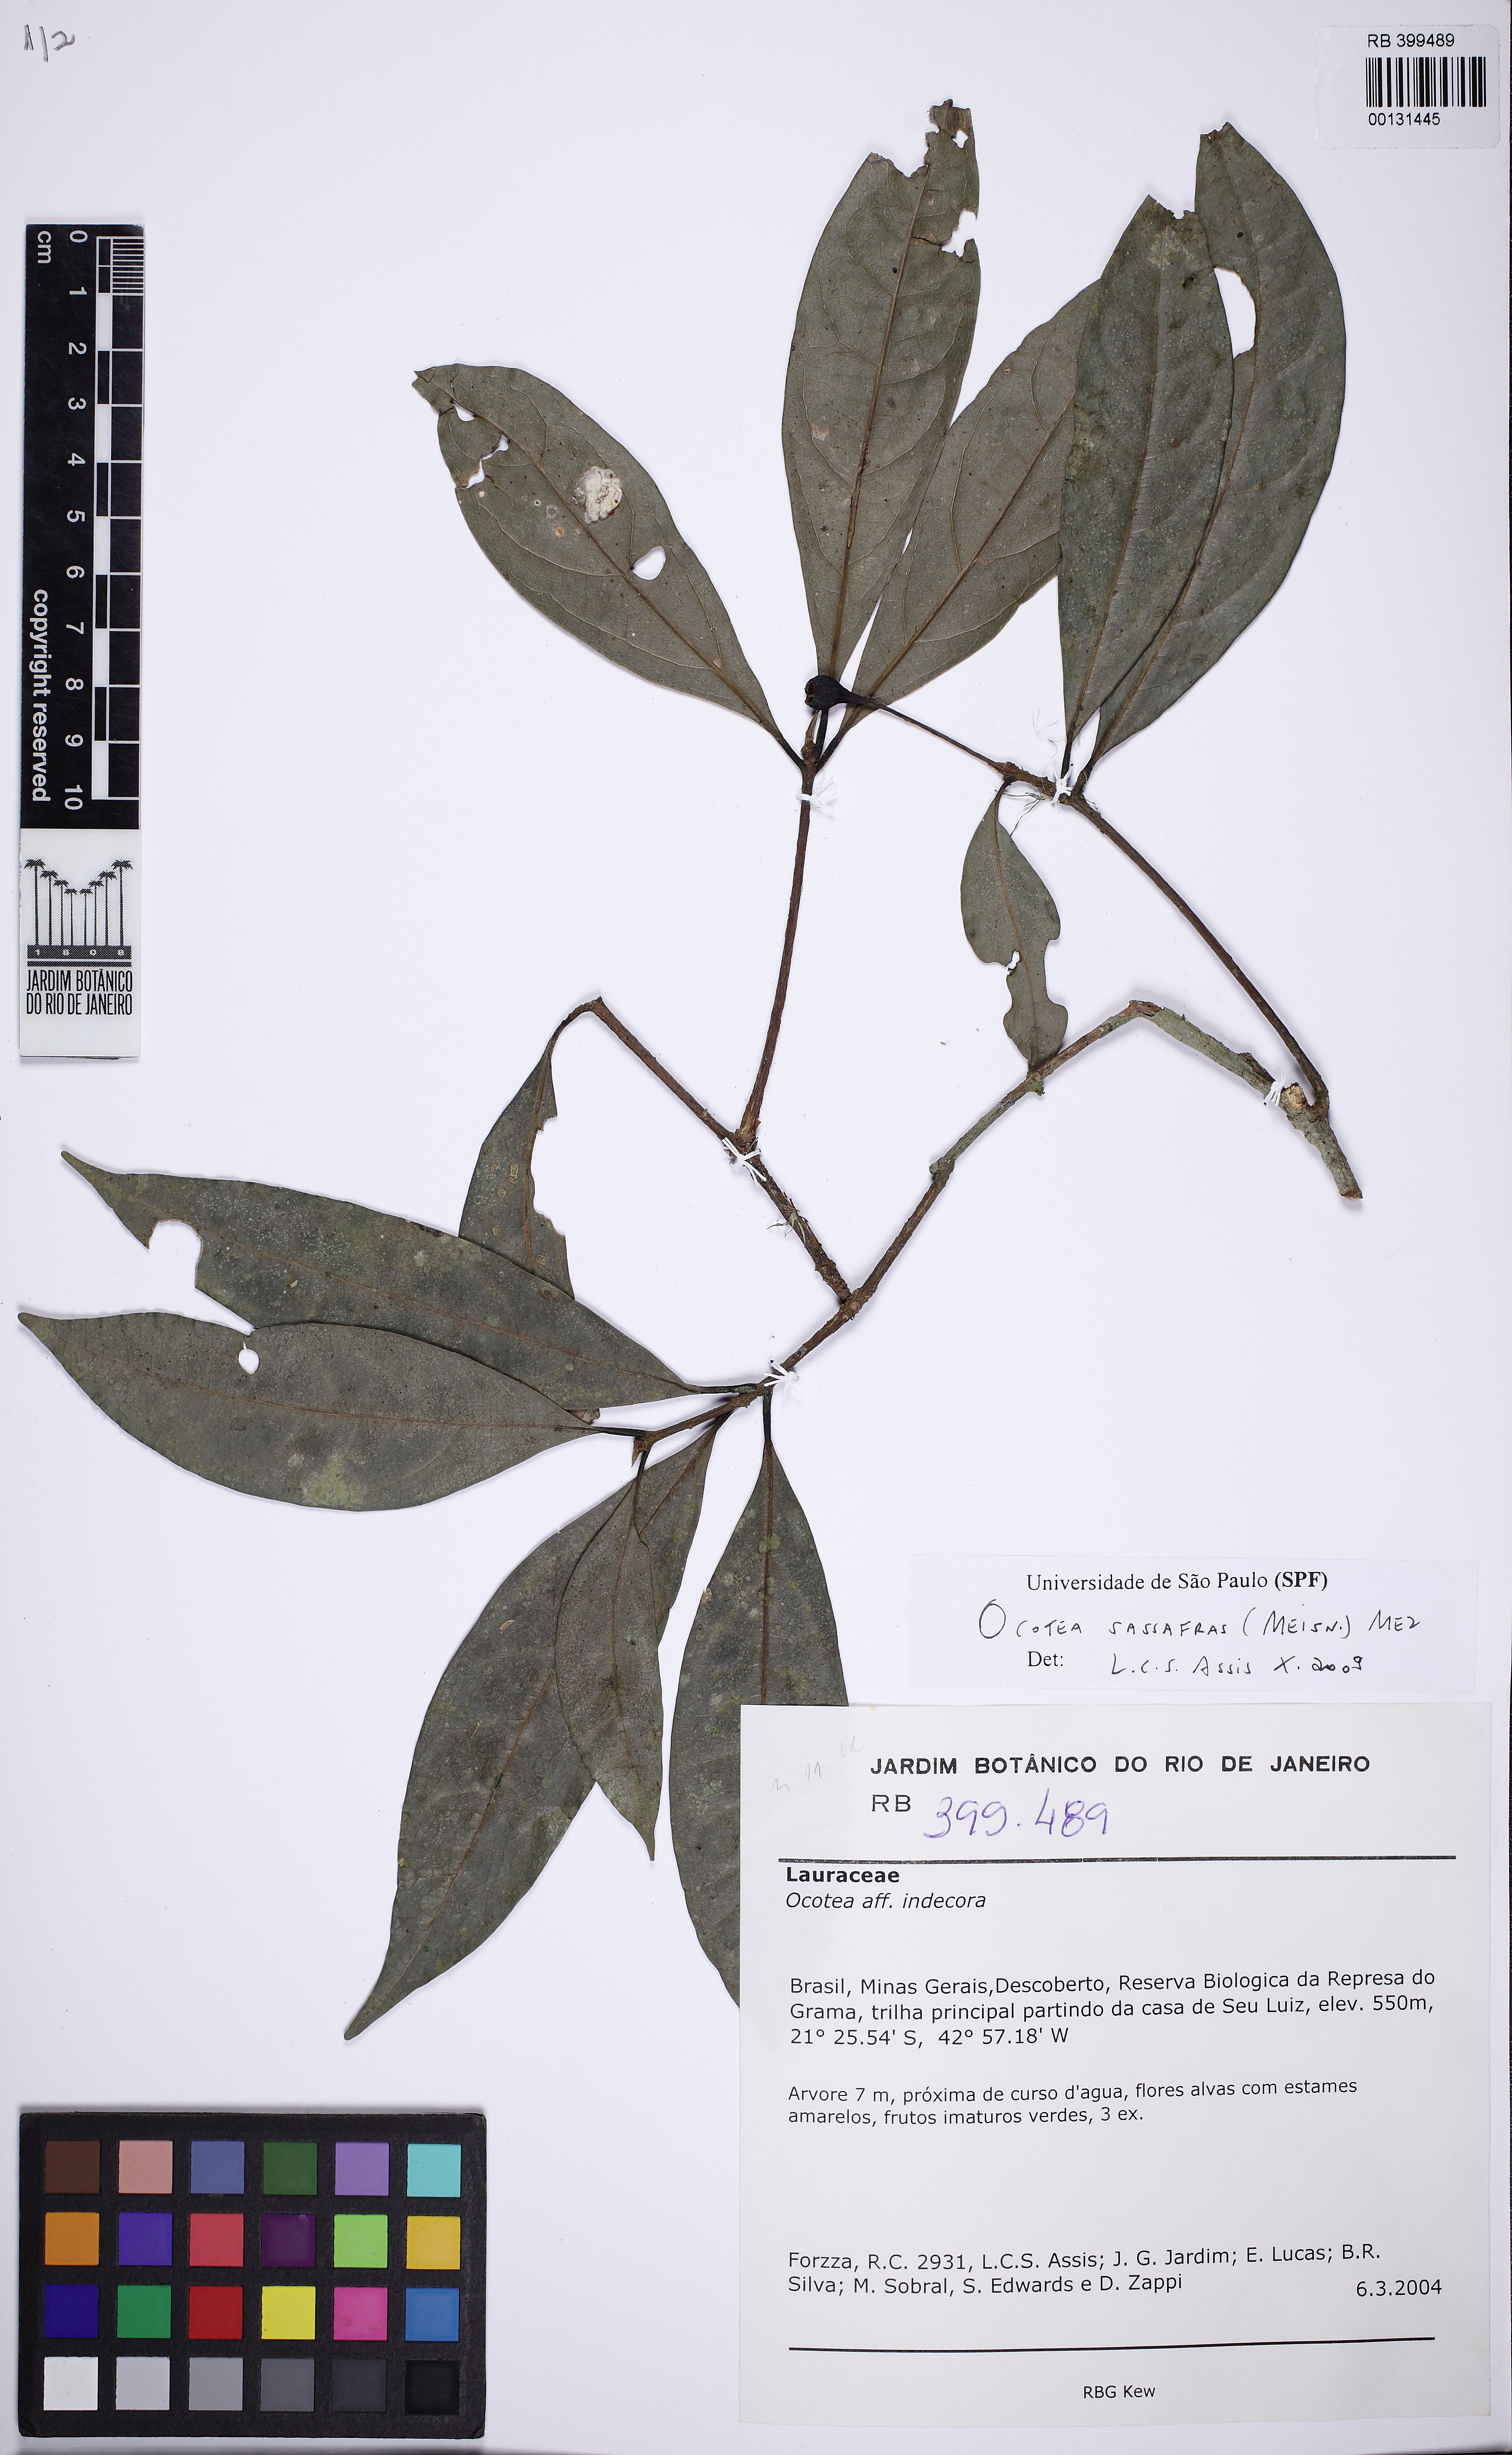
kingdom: Plantae
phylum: Tracheophyta
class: Magnoliopsida
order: Laurales
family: Lauraceae
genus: Mespilodaphne
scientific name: Mespilodaphne sassafras
